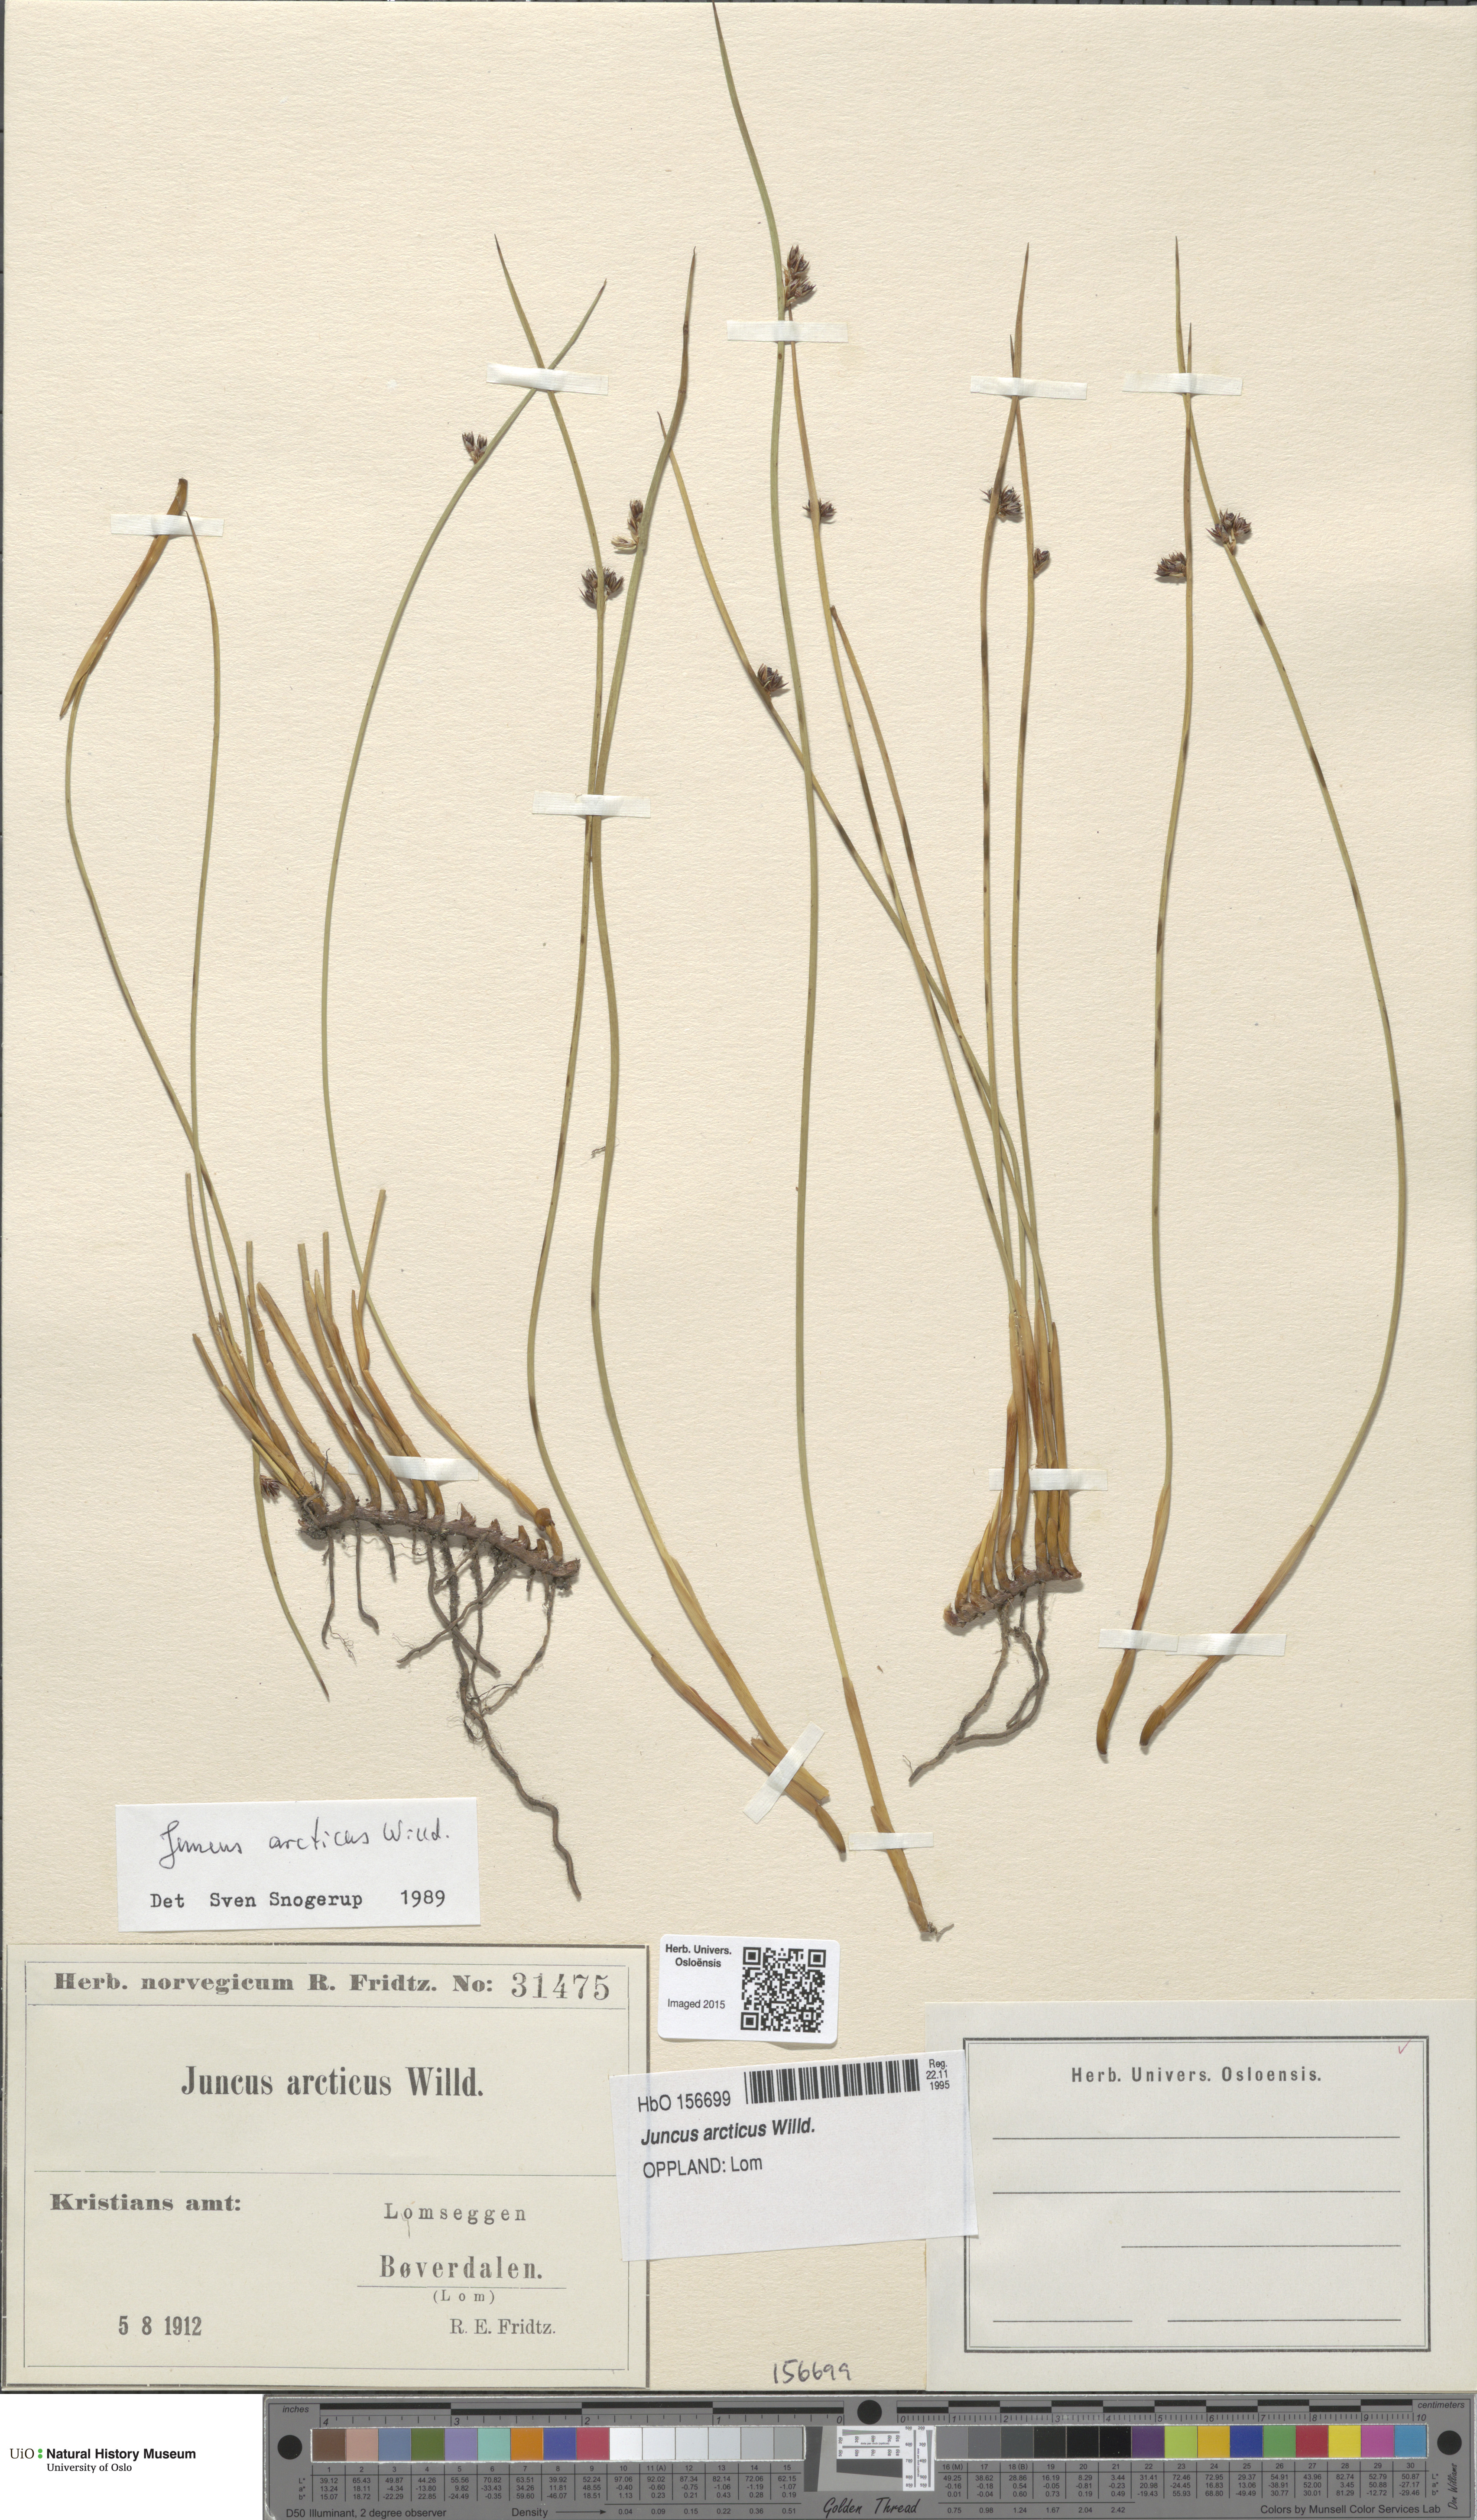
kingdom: Plantae
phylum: Tracheophyta
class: Liliopsida
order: Poales
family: Juncaceae
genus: Juncus
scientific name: Juncus arcticus
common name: Arctic rush
